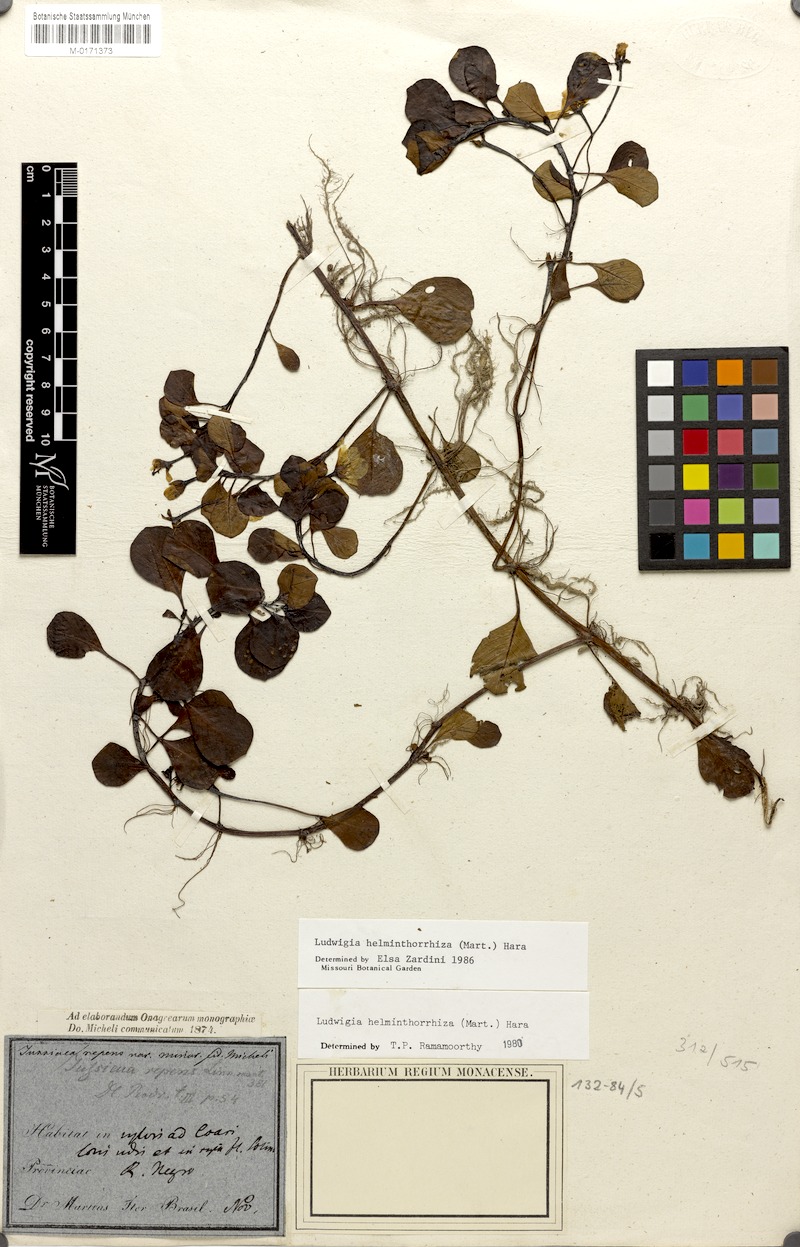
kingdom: Plantae
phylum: Tracheophyta
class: Magnoliopsida
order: Myrtales
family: Onagraceae
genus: Ludwigia
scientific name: Ludwigia helminthorrhiza
